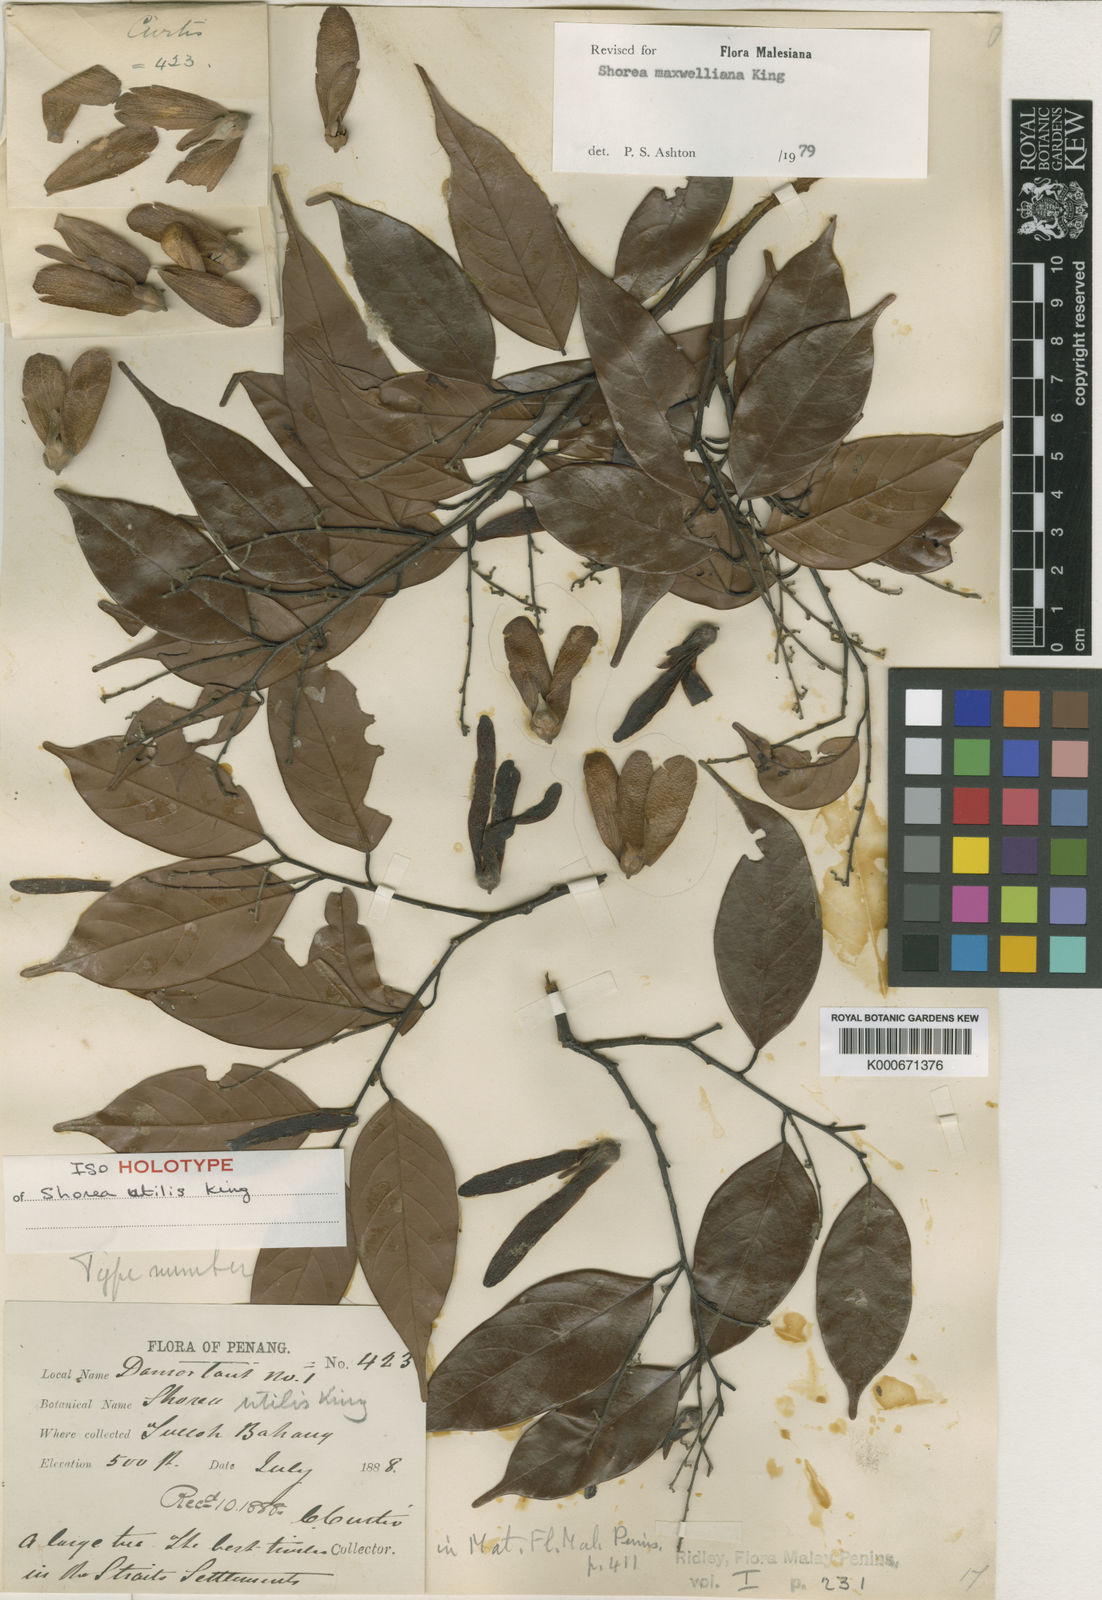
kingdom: Plantae
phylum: Tracheophyta
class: Magnoliopsida
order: Malvales
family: Dipterocarpaceae
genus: Shorea
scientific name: Shorea maxwelliana
